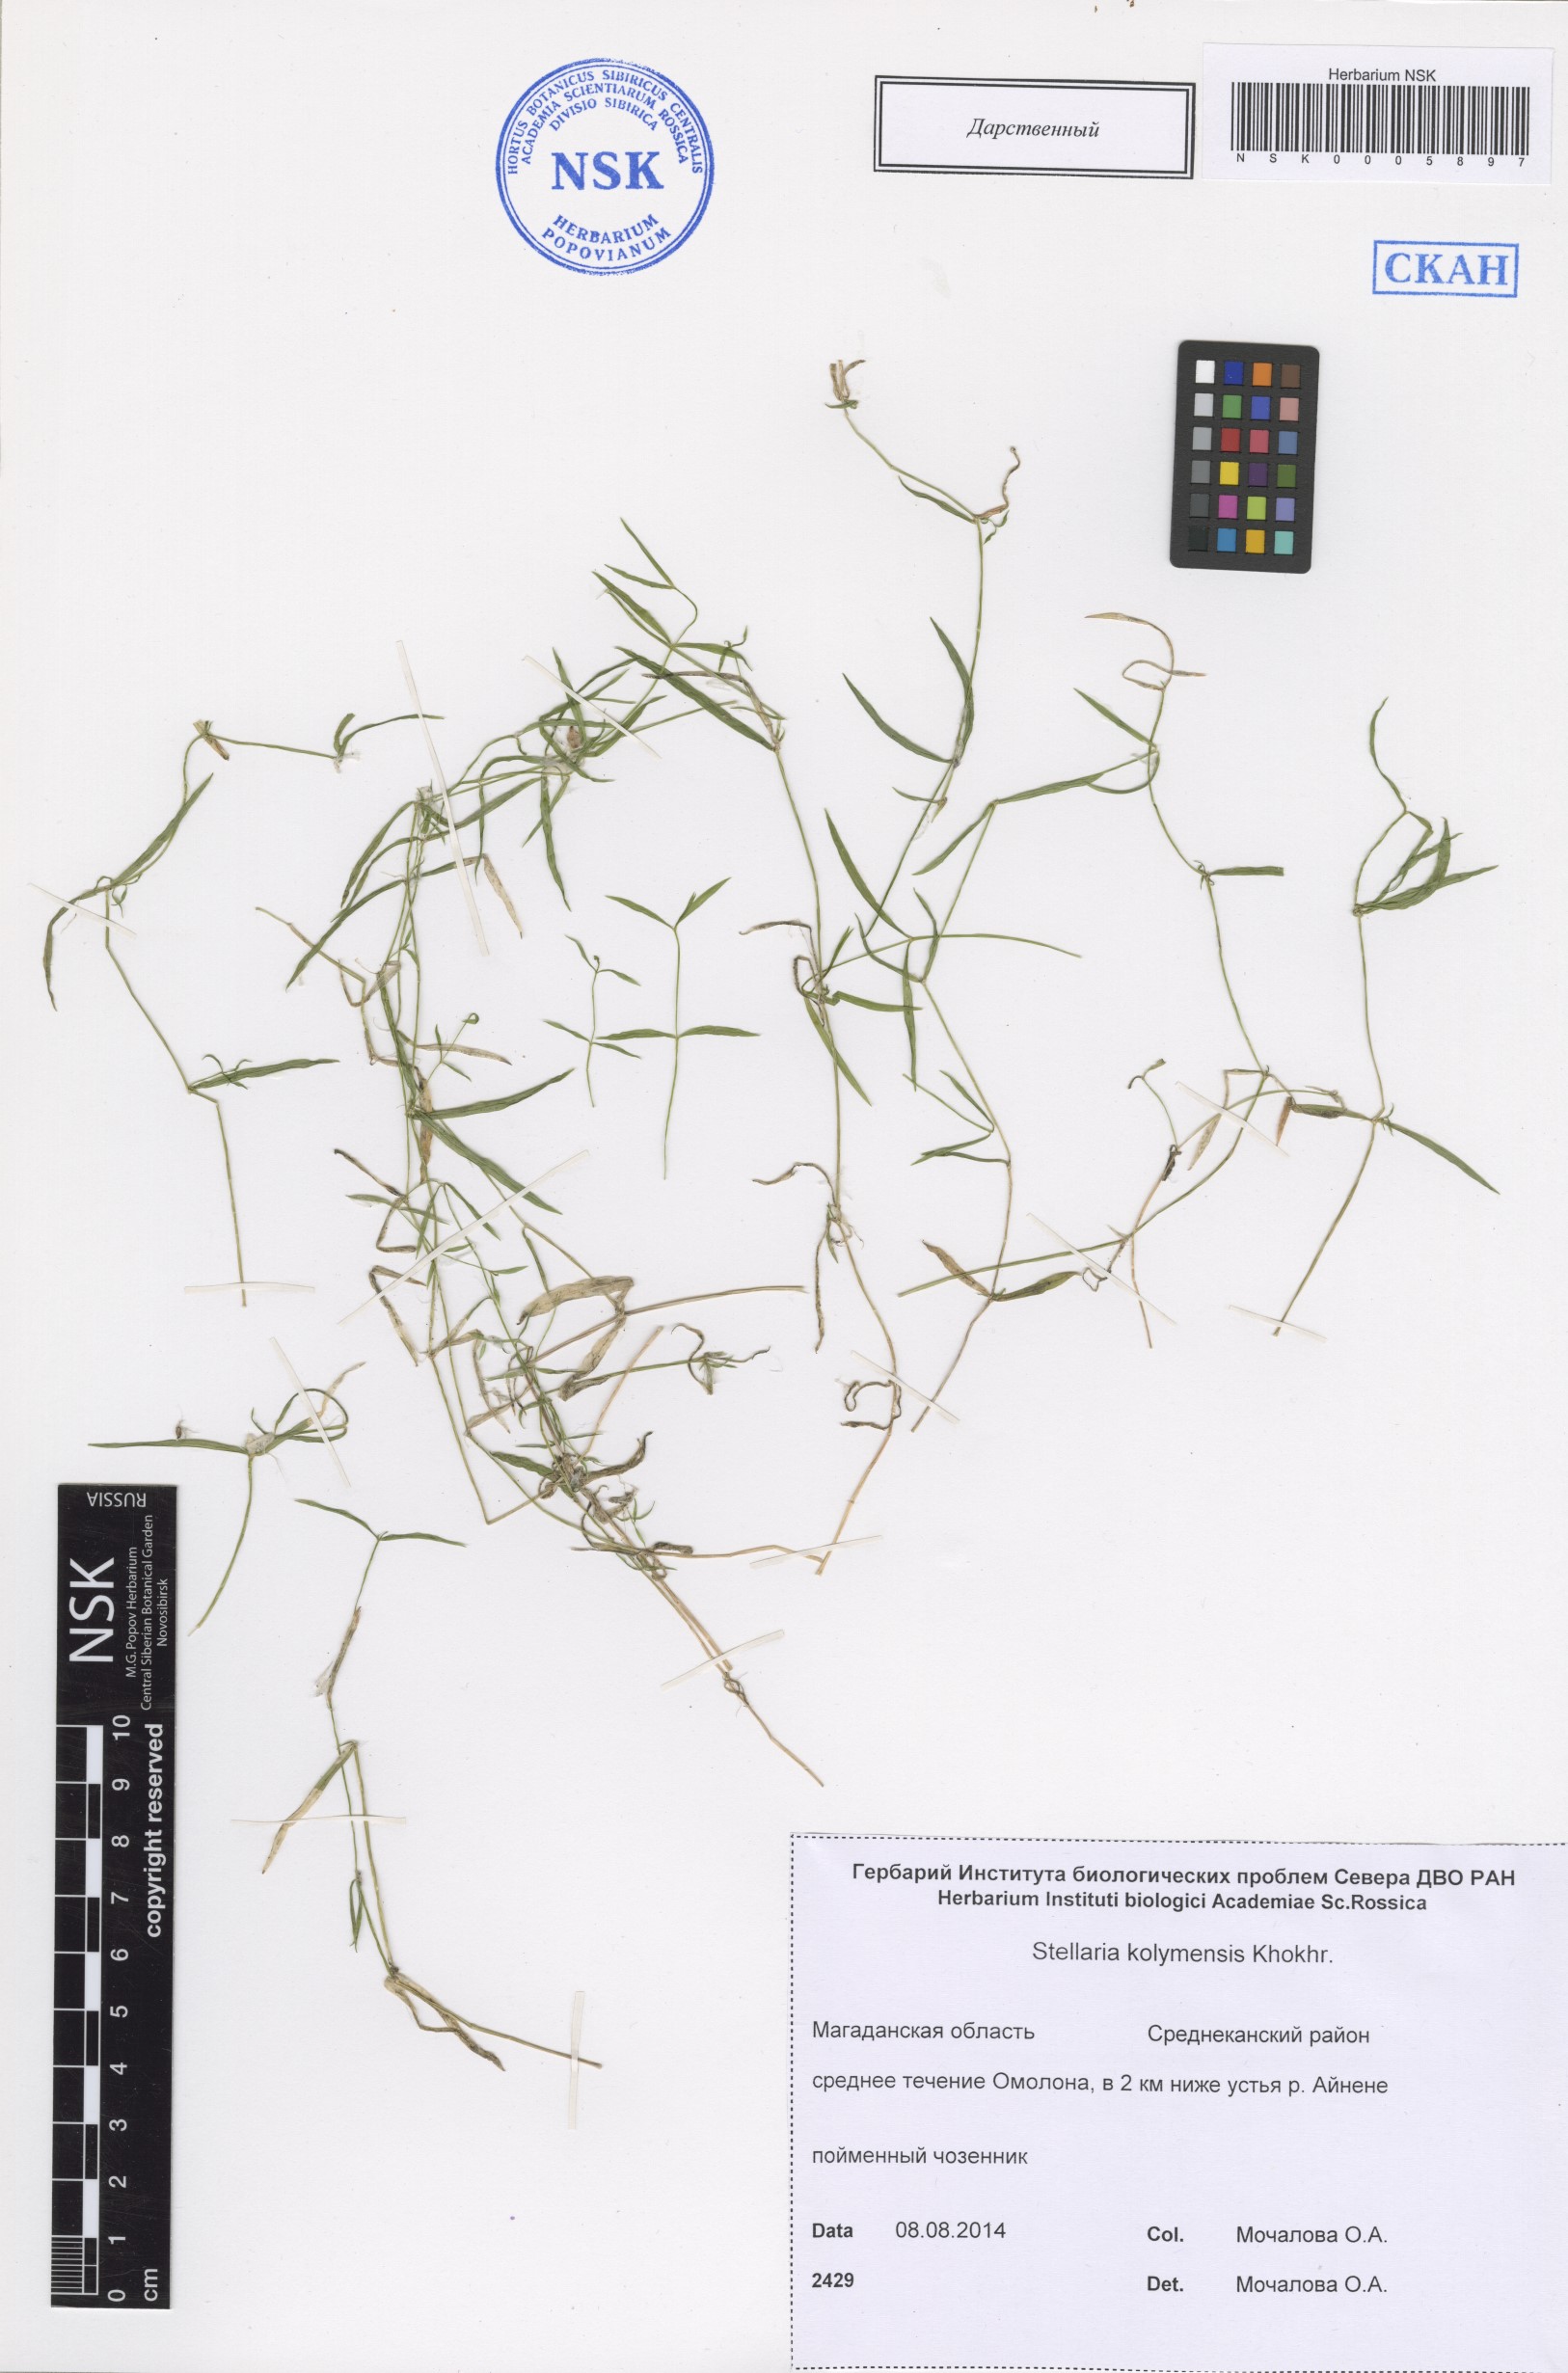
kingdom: Plantae
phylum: Tracheophyta
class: Magnoliopsida
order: Caryophyllales
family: Caryophyllaceae
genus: Stellaria
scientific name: Stellaria kolymensis
